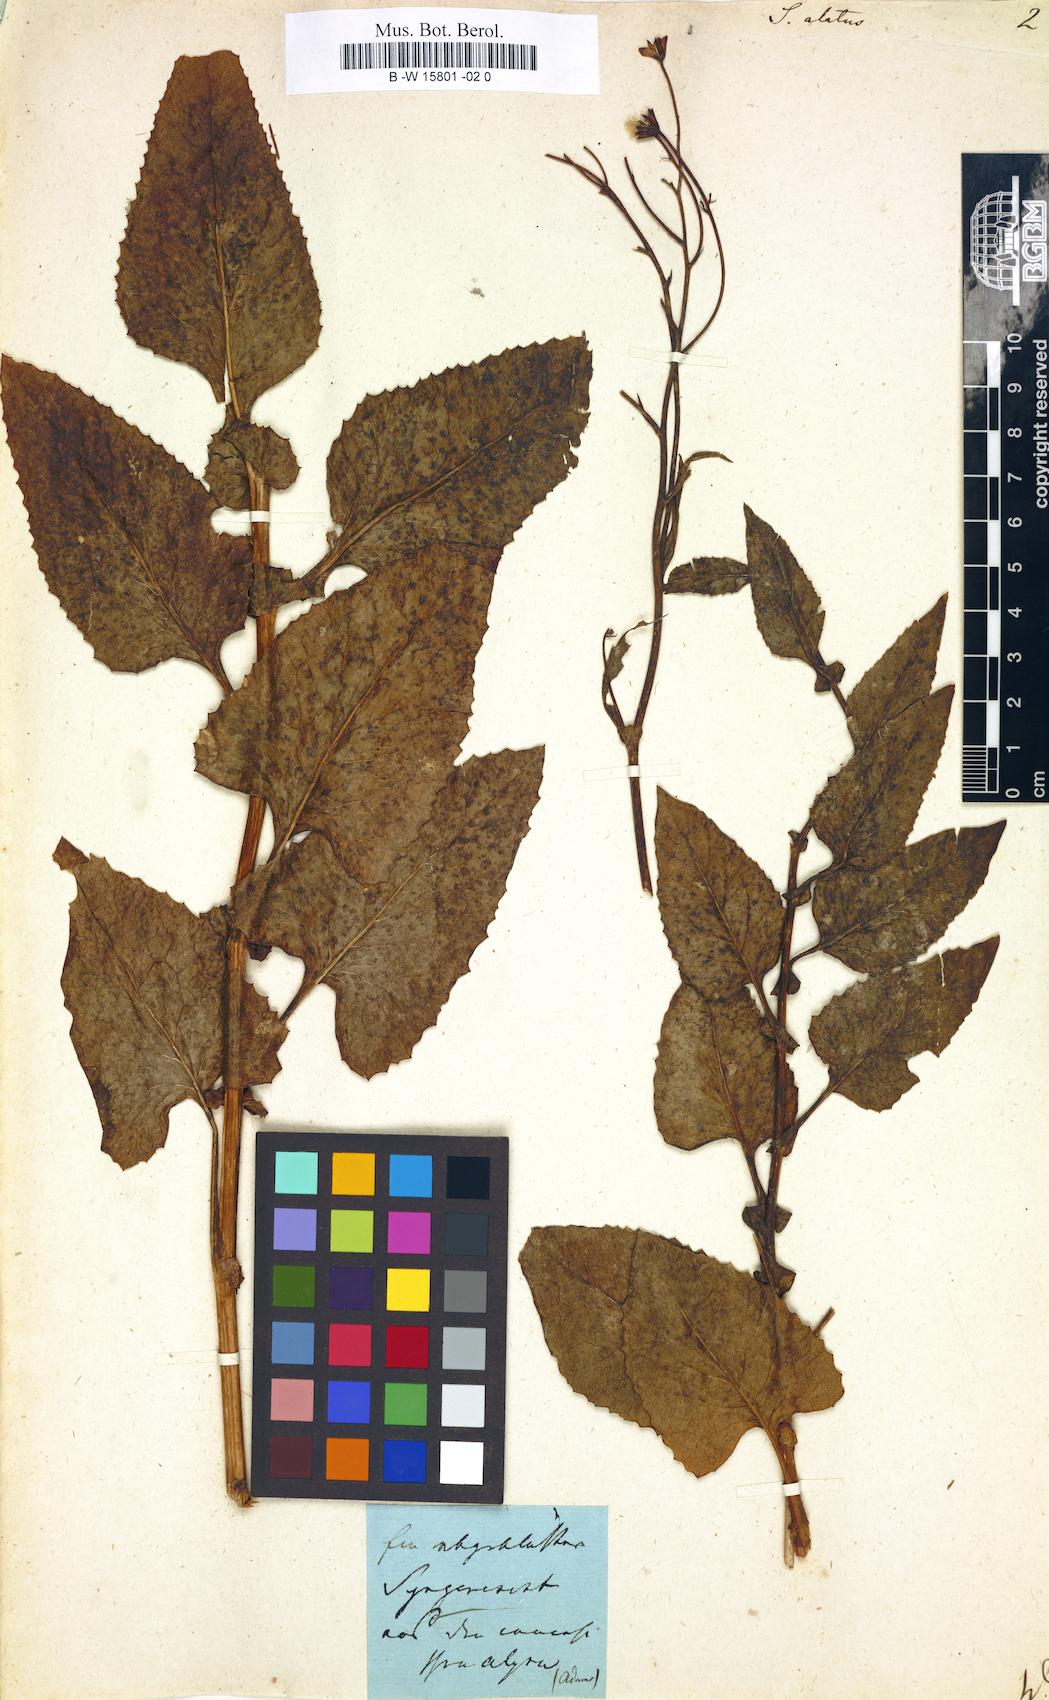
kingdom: Plantae
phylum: Tracheophyta
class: Magnoliopsida
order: Asterales
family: Asteraceae
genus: Synotis
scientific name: Synotis alata
